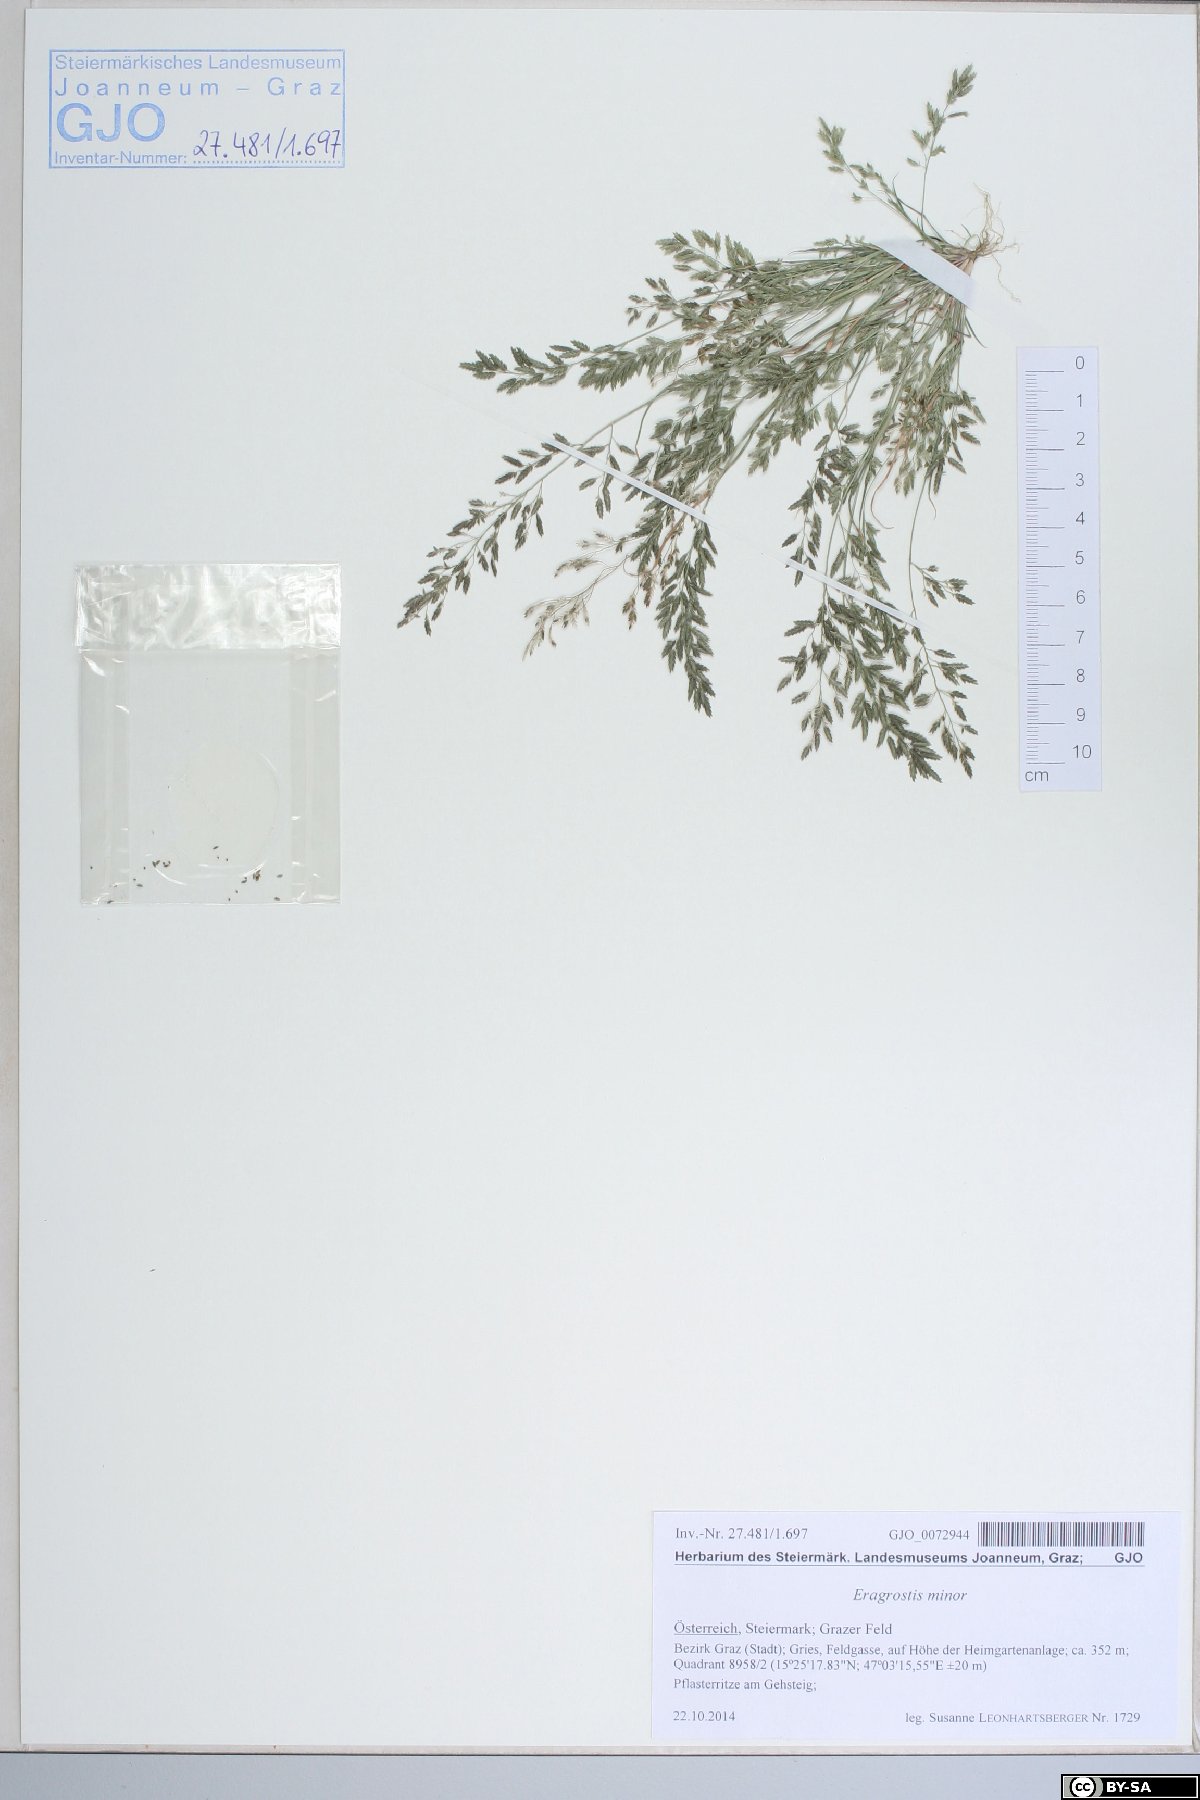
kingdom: Plantae
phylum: Tracheophyta
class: Liliopsida
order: Poales
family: Poaceae
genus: Eragrostis
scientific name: Eragrostis minor
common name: Small love-grass
